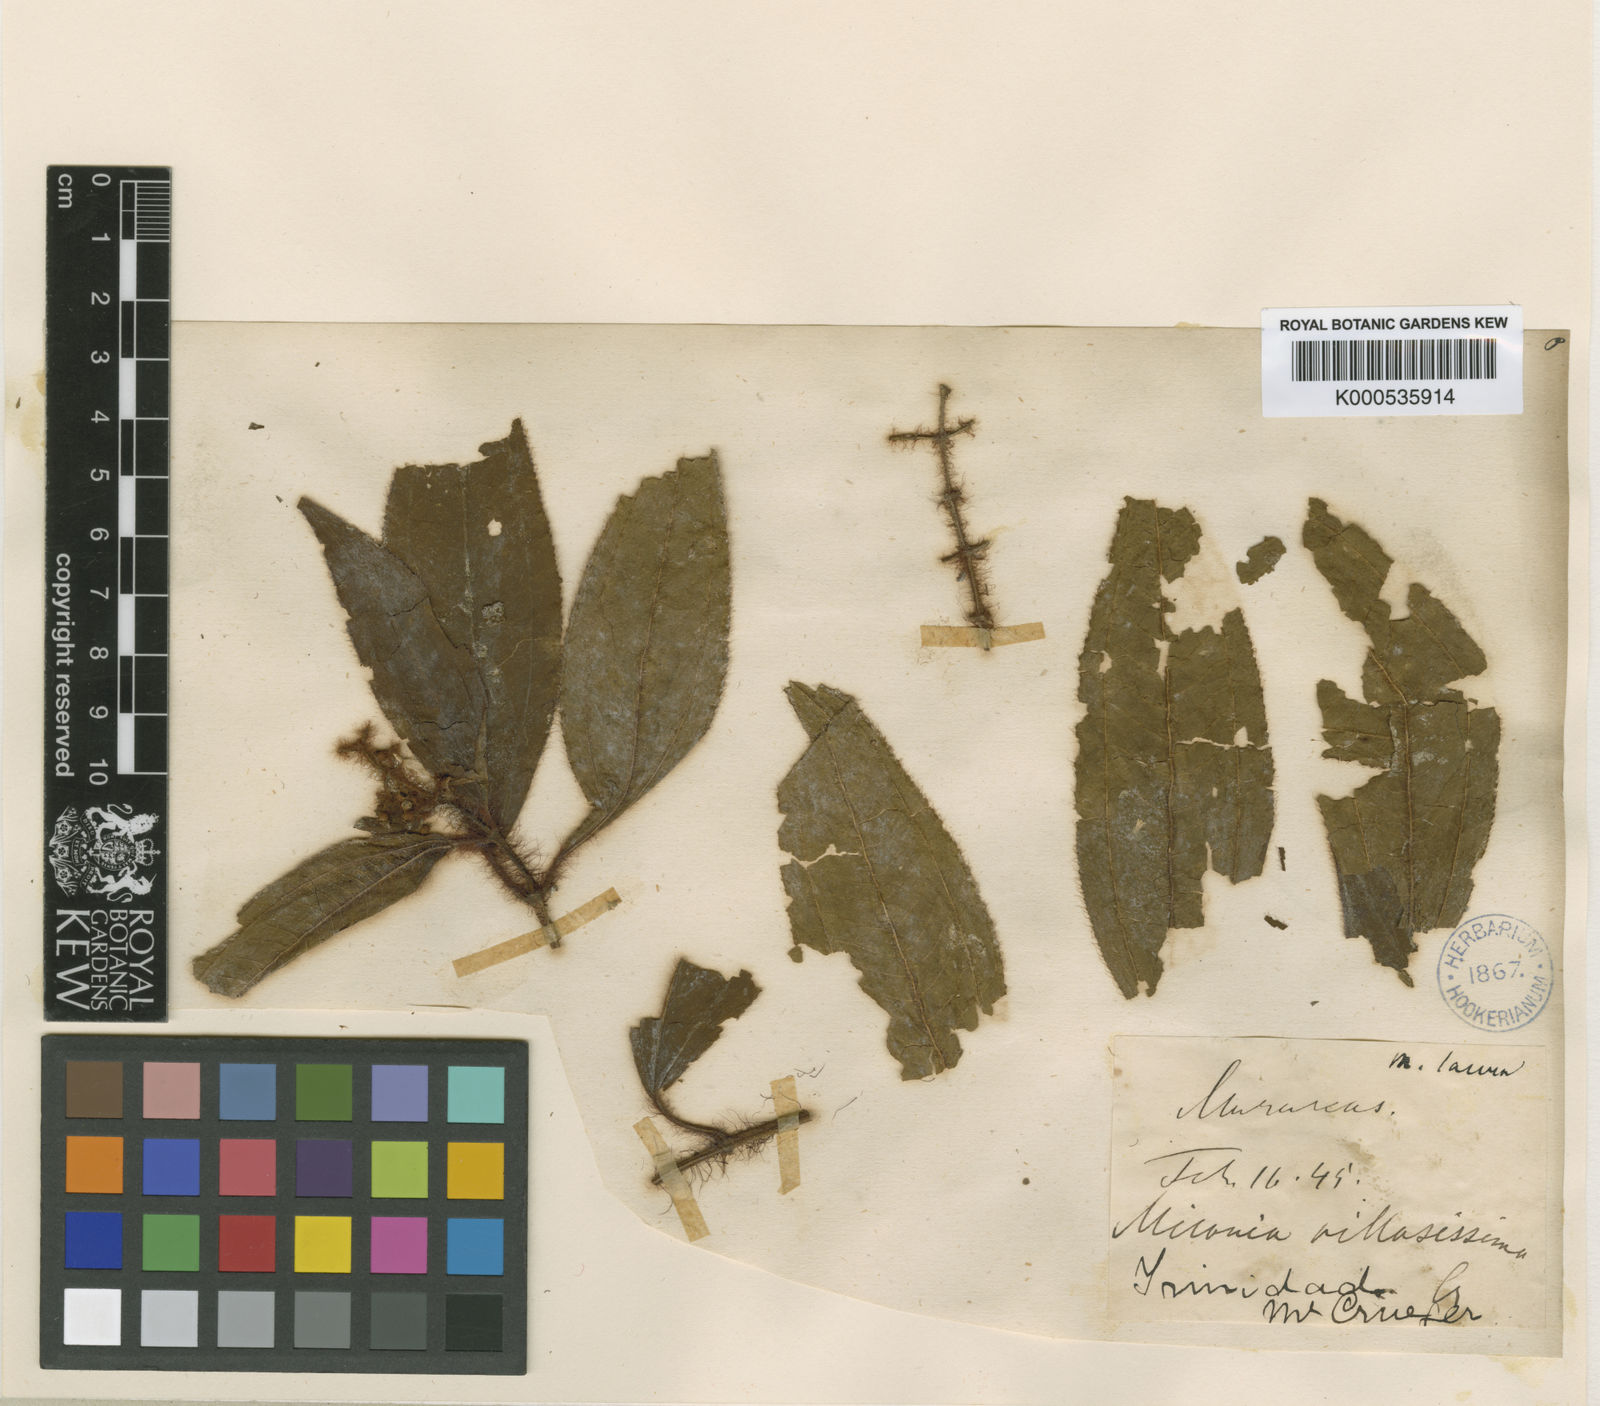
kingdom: Plantae
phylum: Tracheophyta
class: Magnoliopsida
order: Myrtales
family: Melastomataceae
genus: Miconia
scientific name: Miconia lacera
